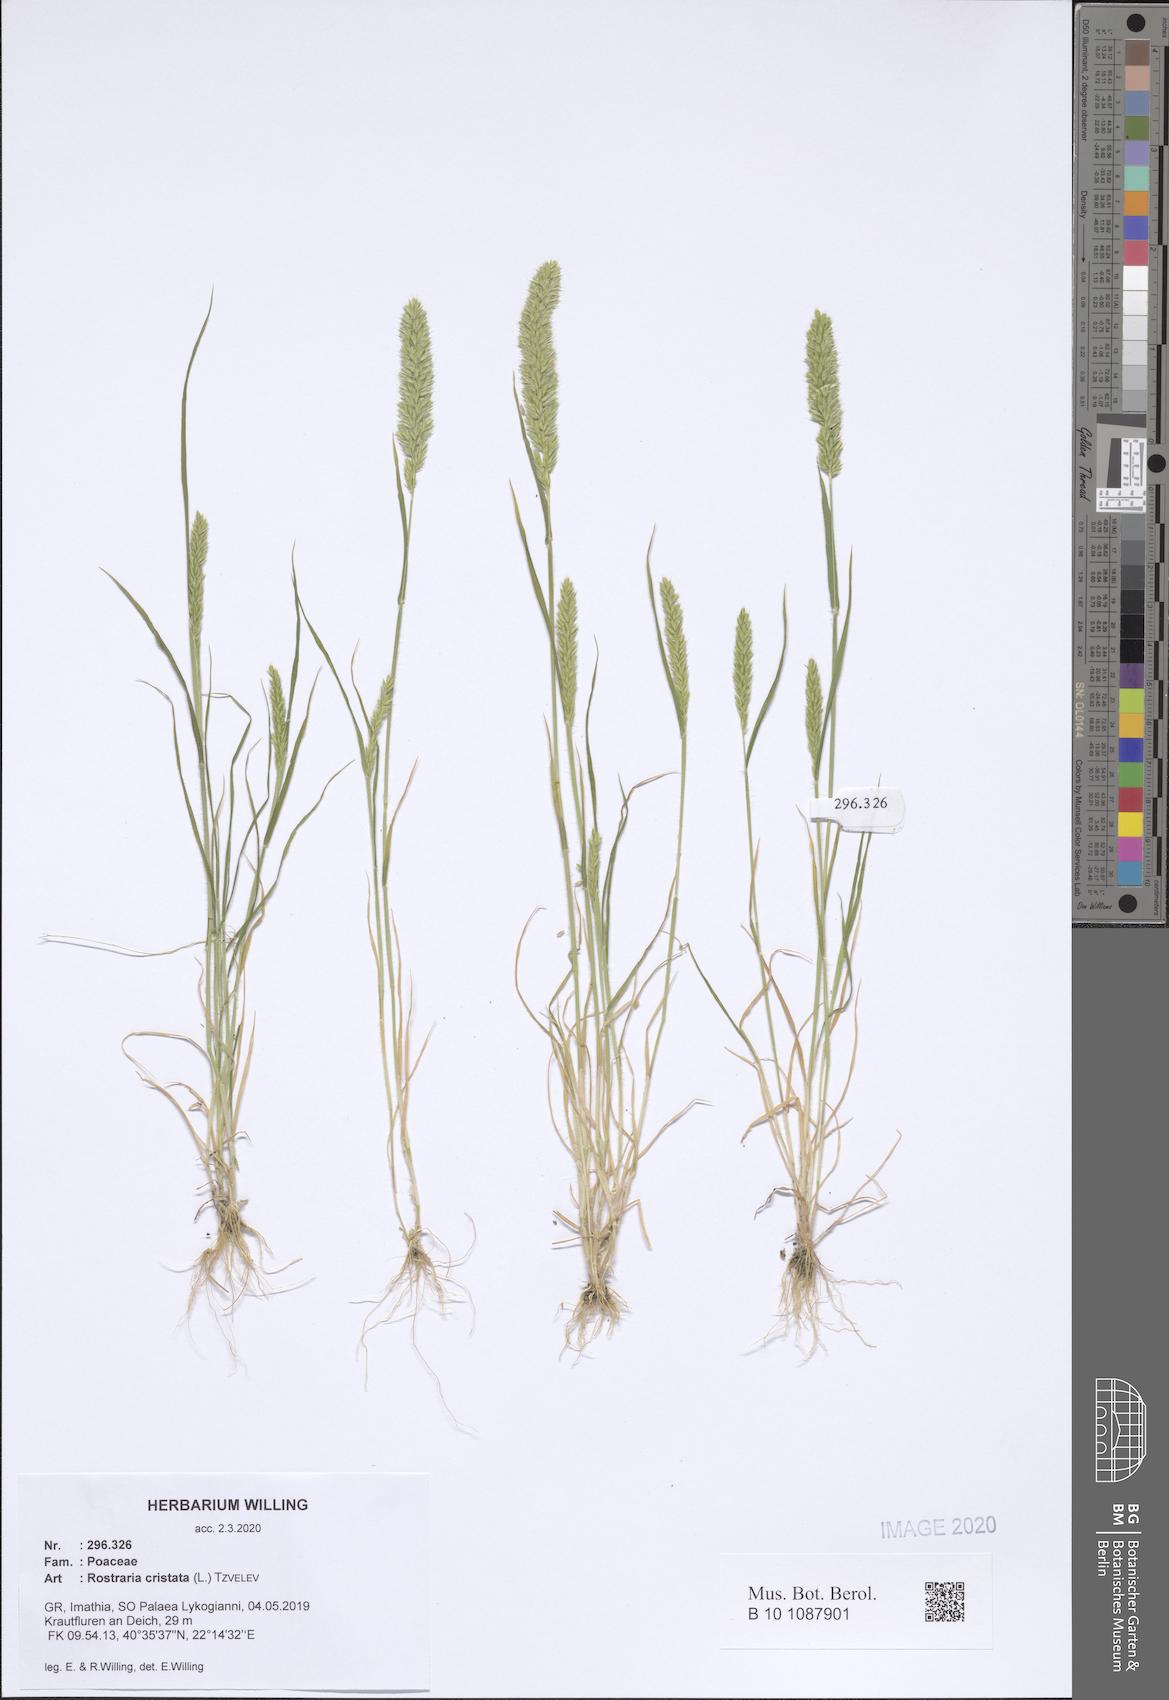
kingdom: Plantae
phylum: Tracheophyta
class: Liliopsida
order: Poales
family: Poaceae
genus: Rostraria
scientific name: Rostraria cristata
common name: Mediterranean hair-grass
